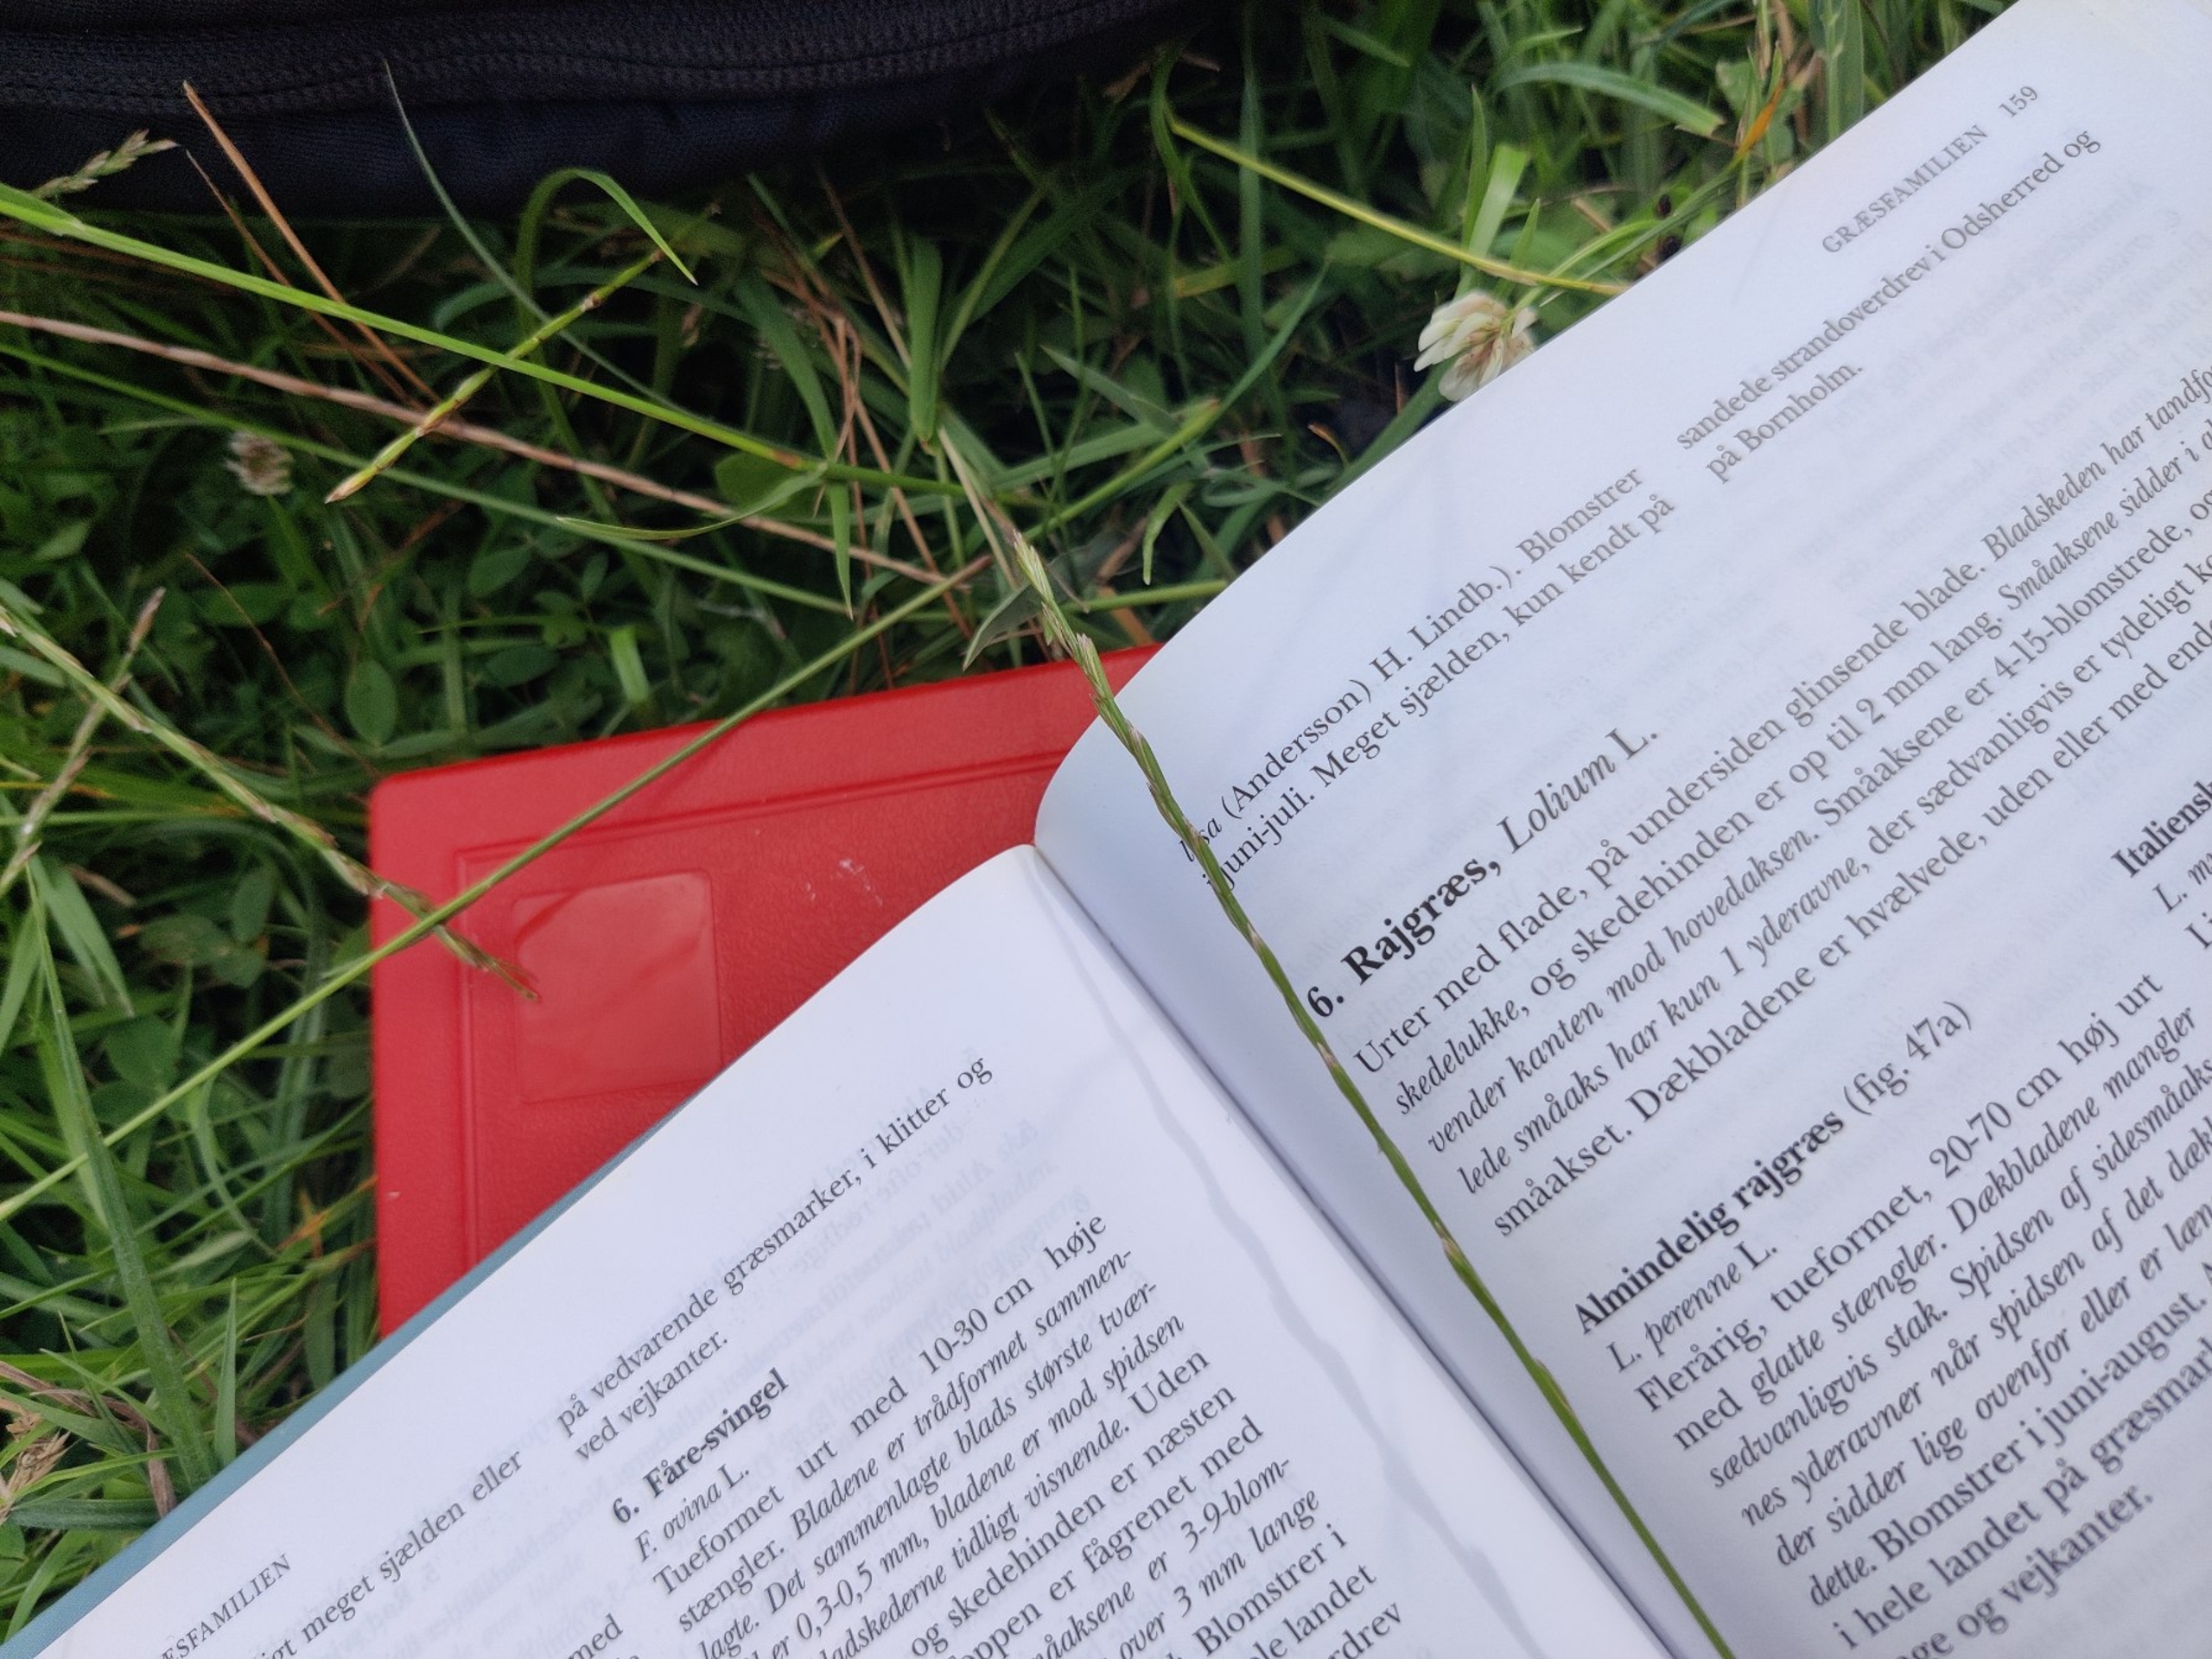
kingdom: Plantae
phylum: Tracheophyta
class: Liliopsida
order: Poales
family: Poaceae
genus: Lolium
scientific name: Lolium perenne
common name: Almindelig rajgræs
